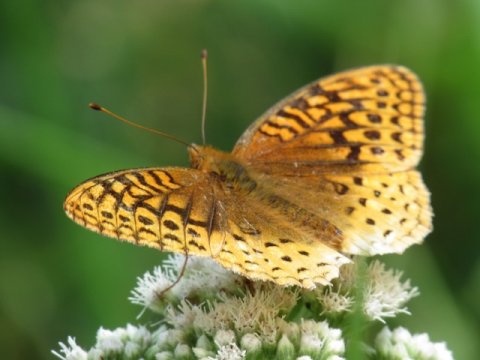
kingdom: Animalia
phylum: Arthropoda
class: Insecta
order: Lepidoptera
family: Nymphalidae
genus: Speyeria
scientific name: Speyeria cybele
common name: Great Spangled Fritillary
